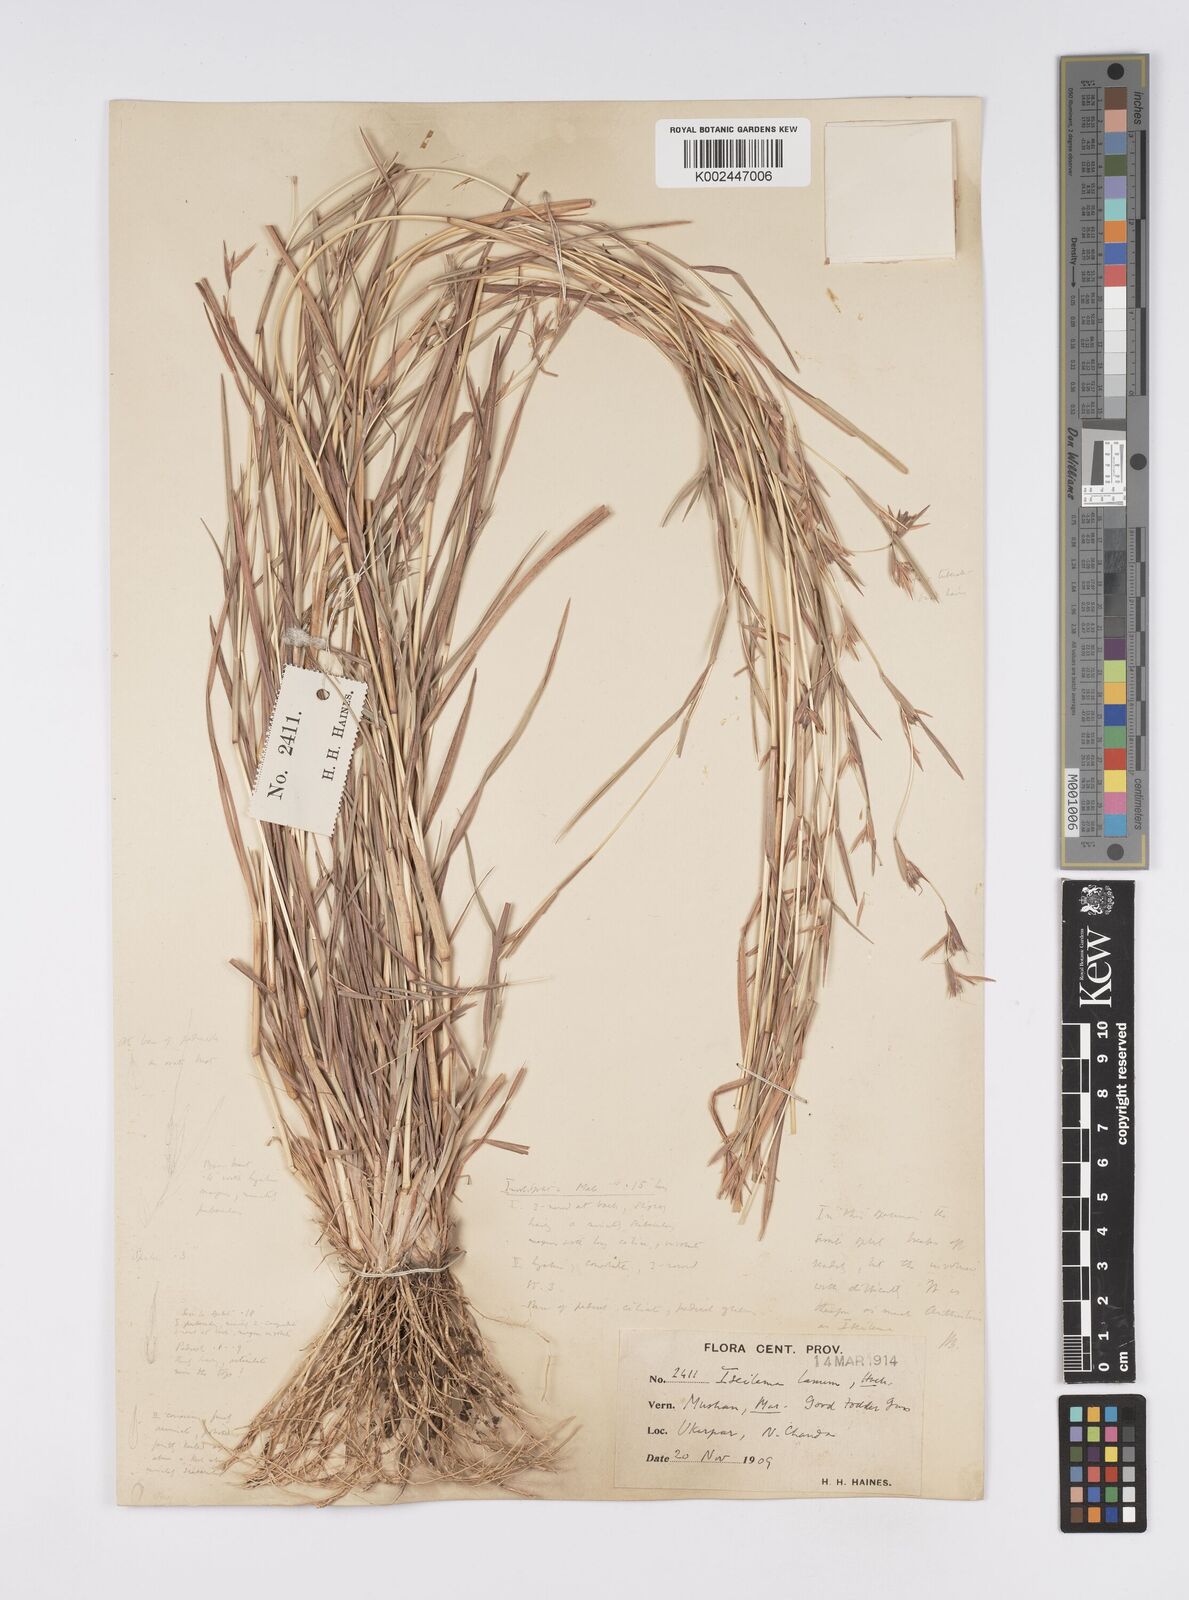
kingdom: Plantae
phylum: Tracheophyta
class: Liliopsida
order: Poales
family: Poaceae
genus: Iseilema
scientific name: Iseilema prostratum
